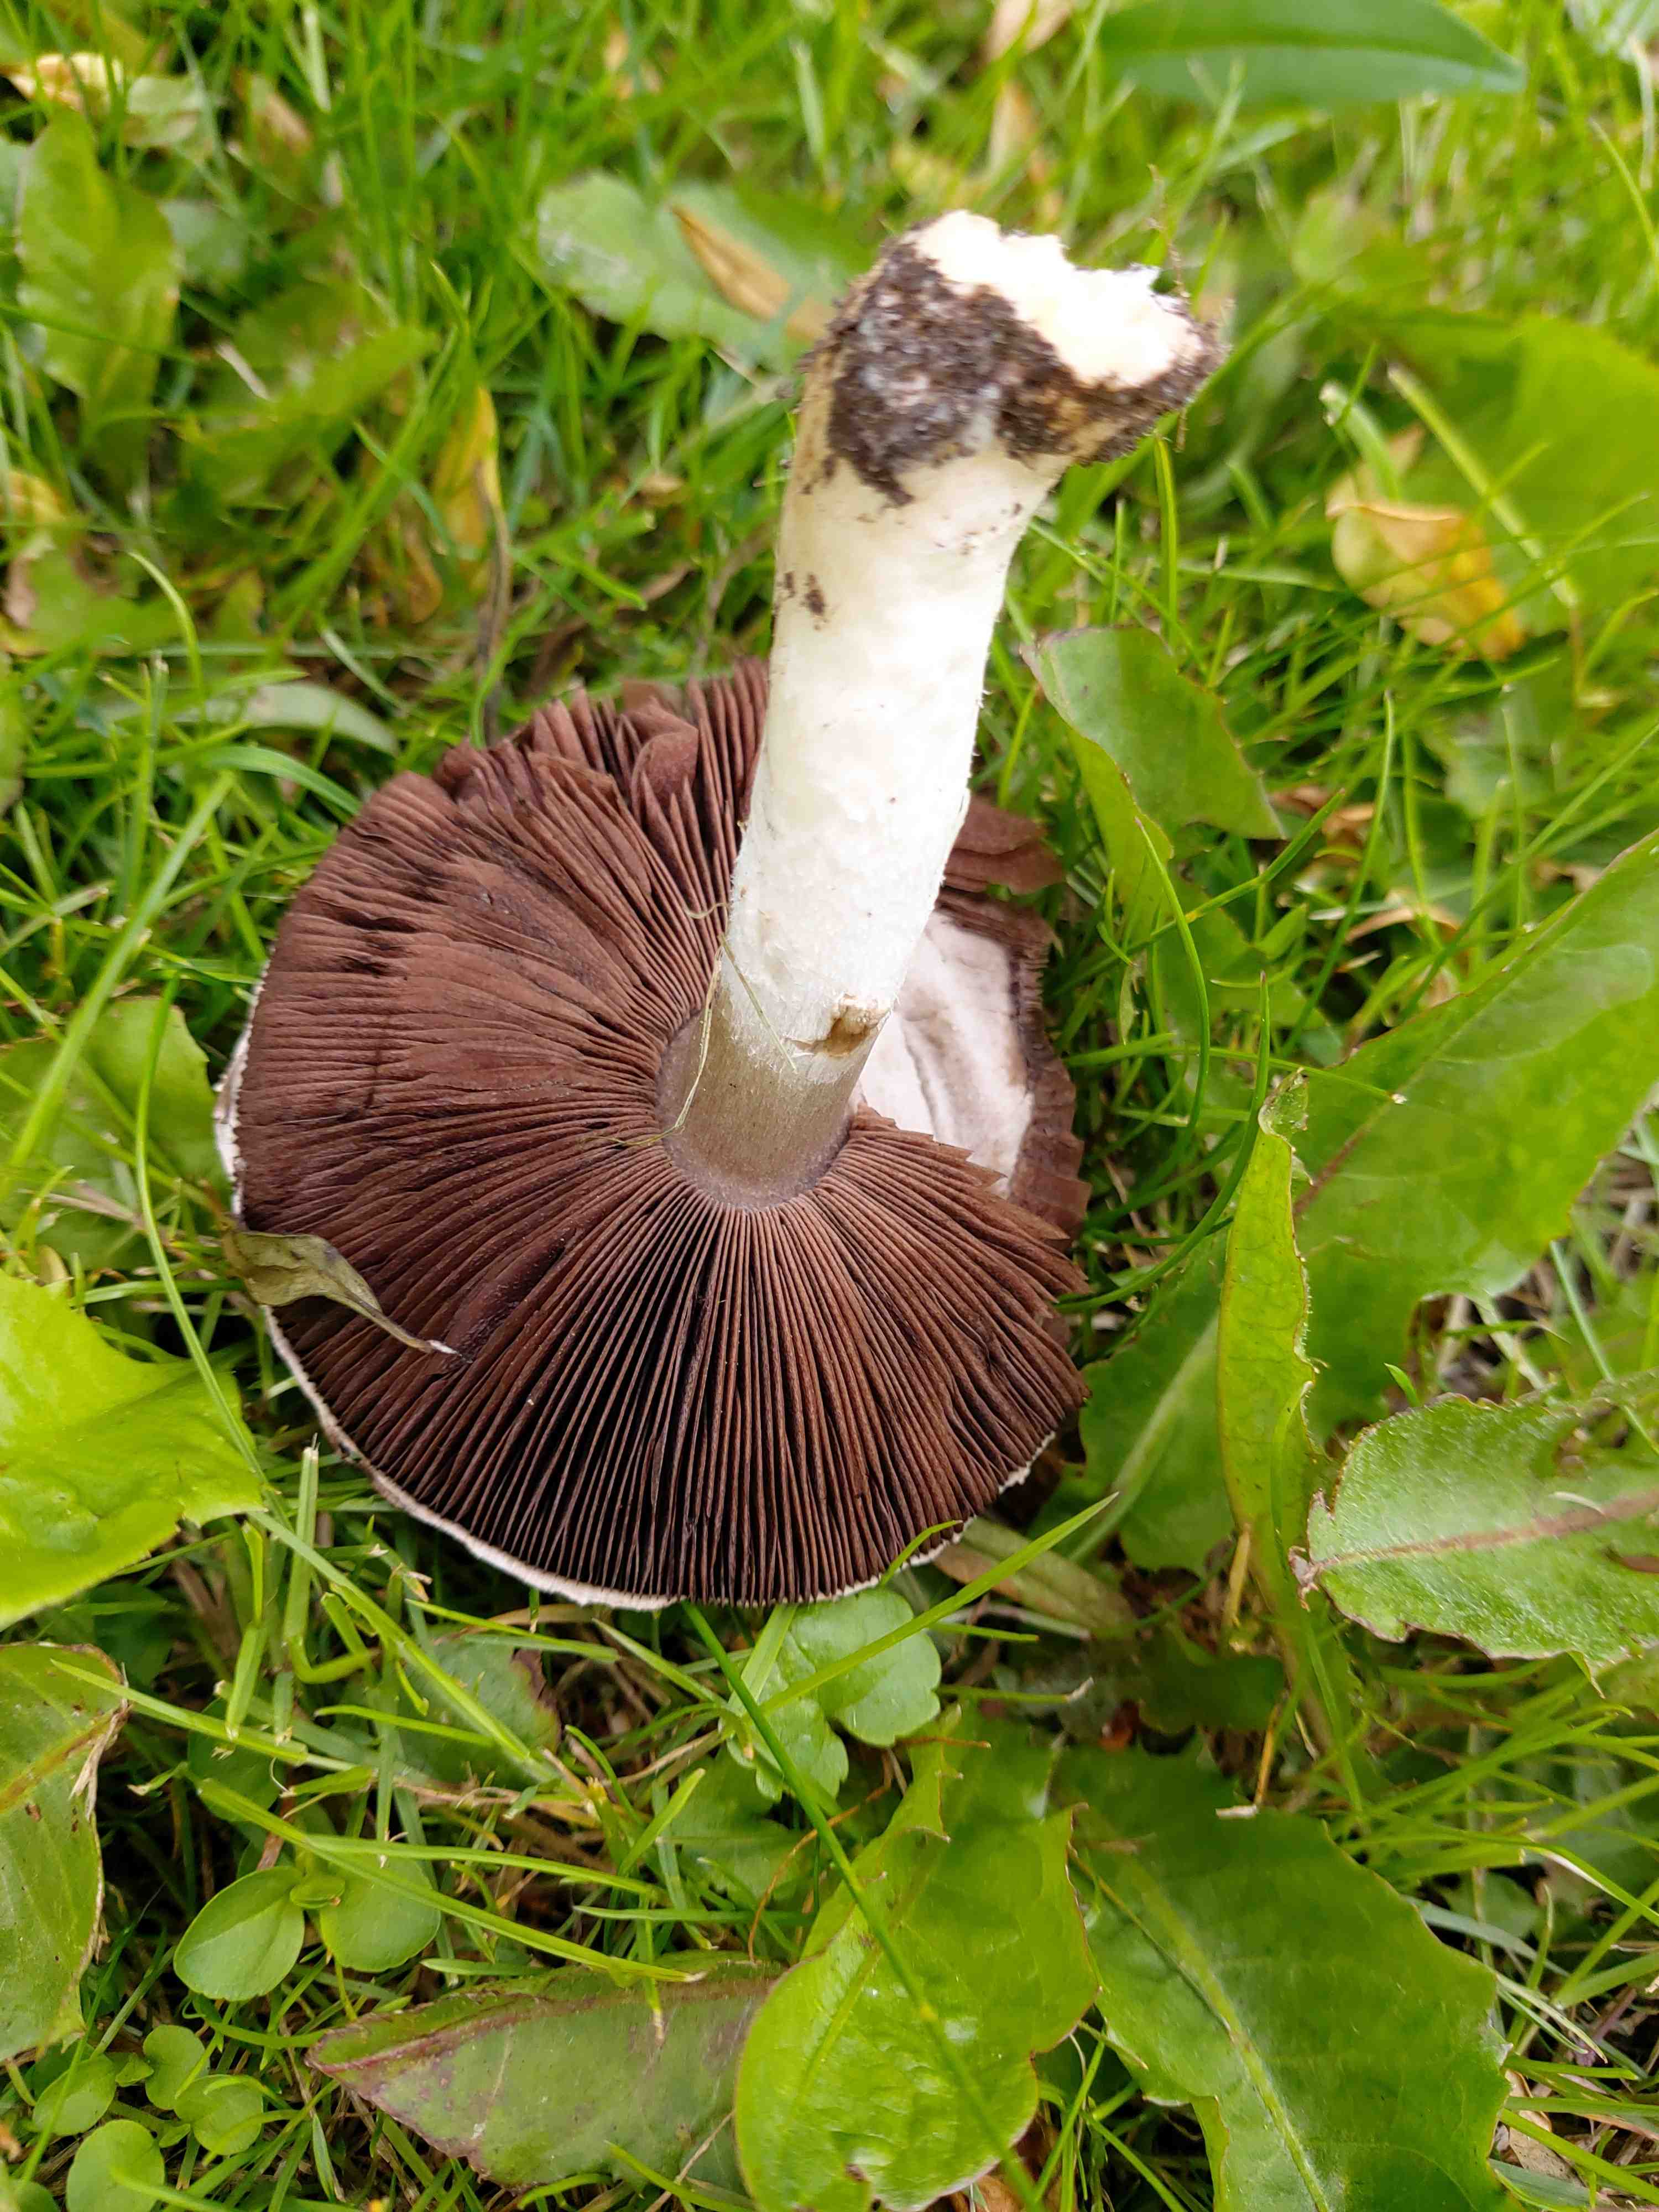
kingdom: Fungi
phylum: Basidiomycota
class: Agaricomycetes
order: Agaricales
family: Agaricaceae
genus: Agaricus
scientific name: Agaricus
